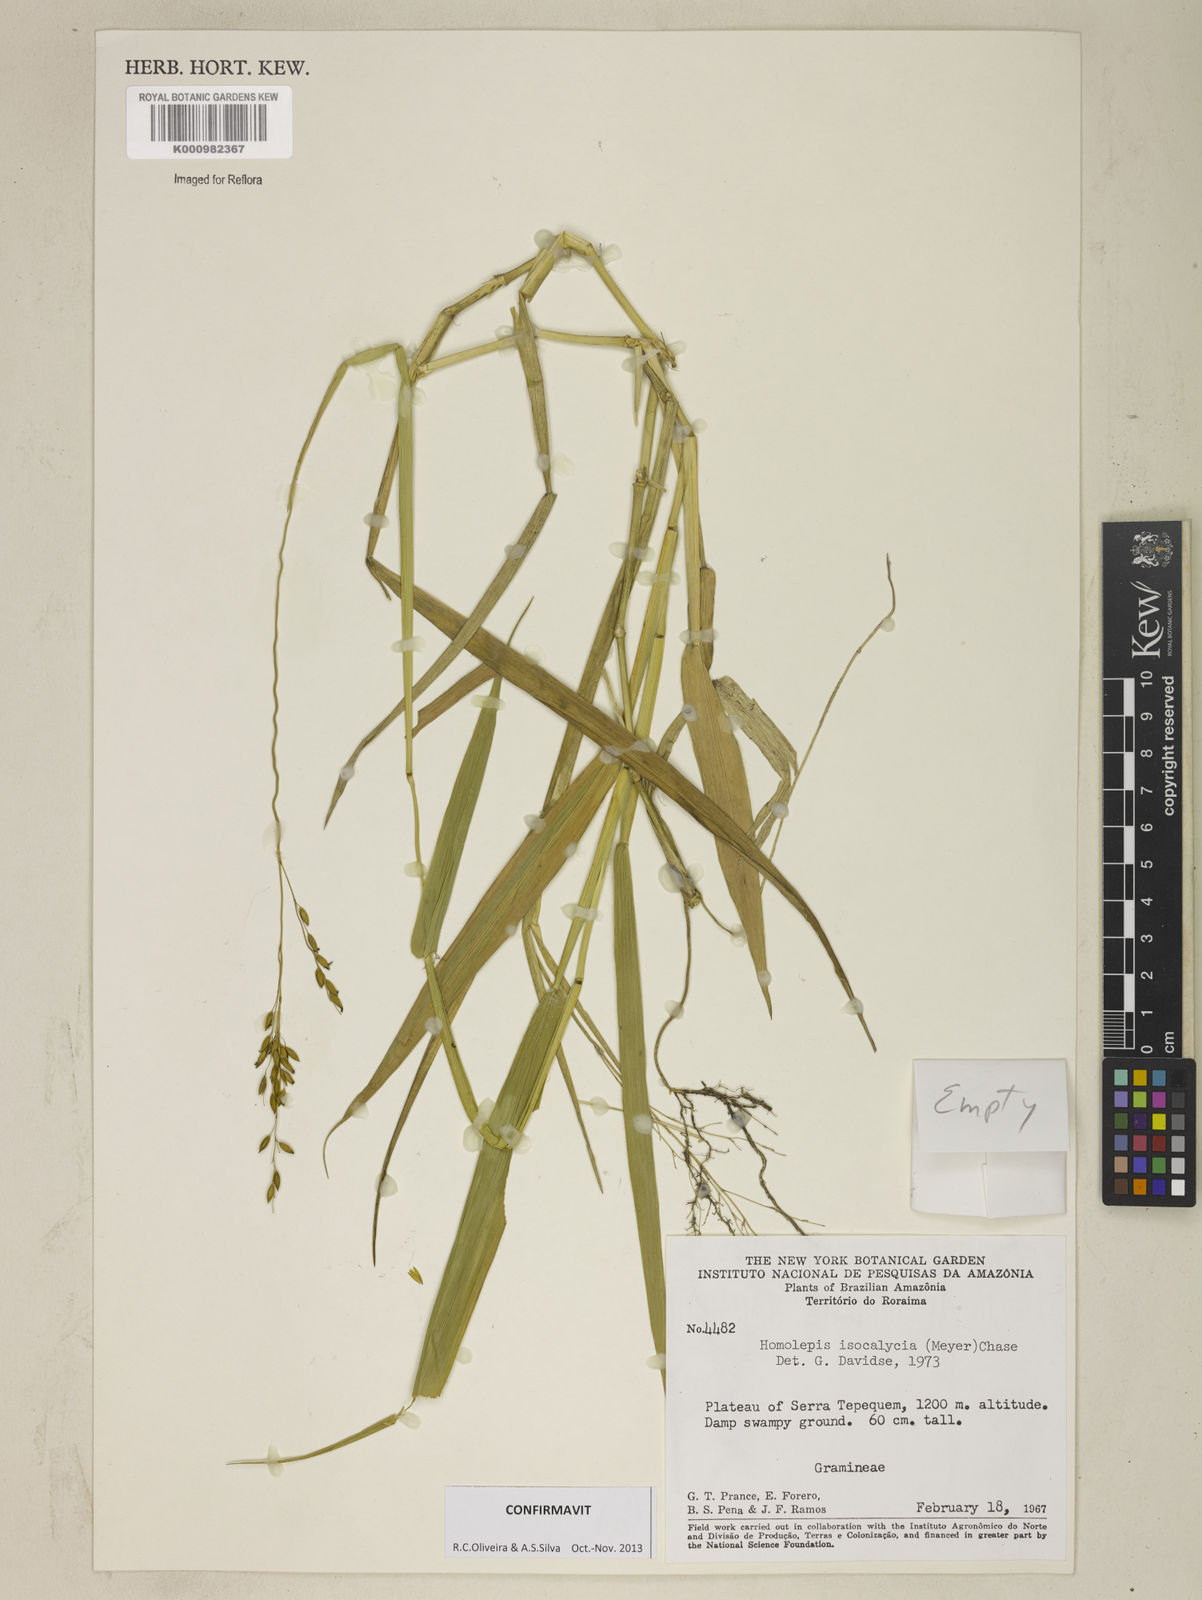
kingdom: Plantae
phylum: Tracheophyta
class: Liliopsida
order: Poales
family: Poaceae
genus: Homolepis
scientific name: Homolepis
